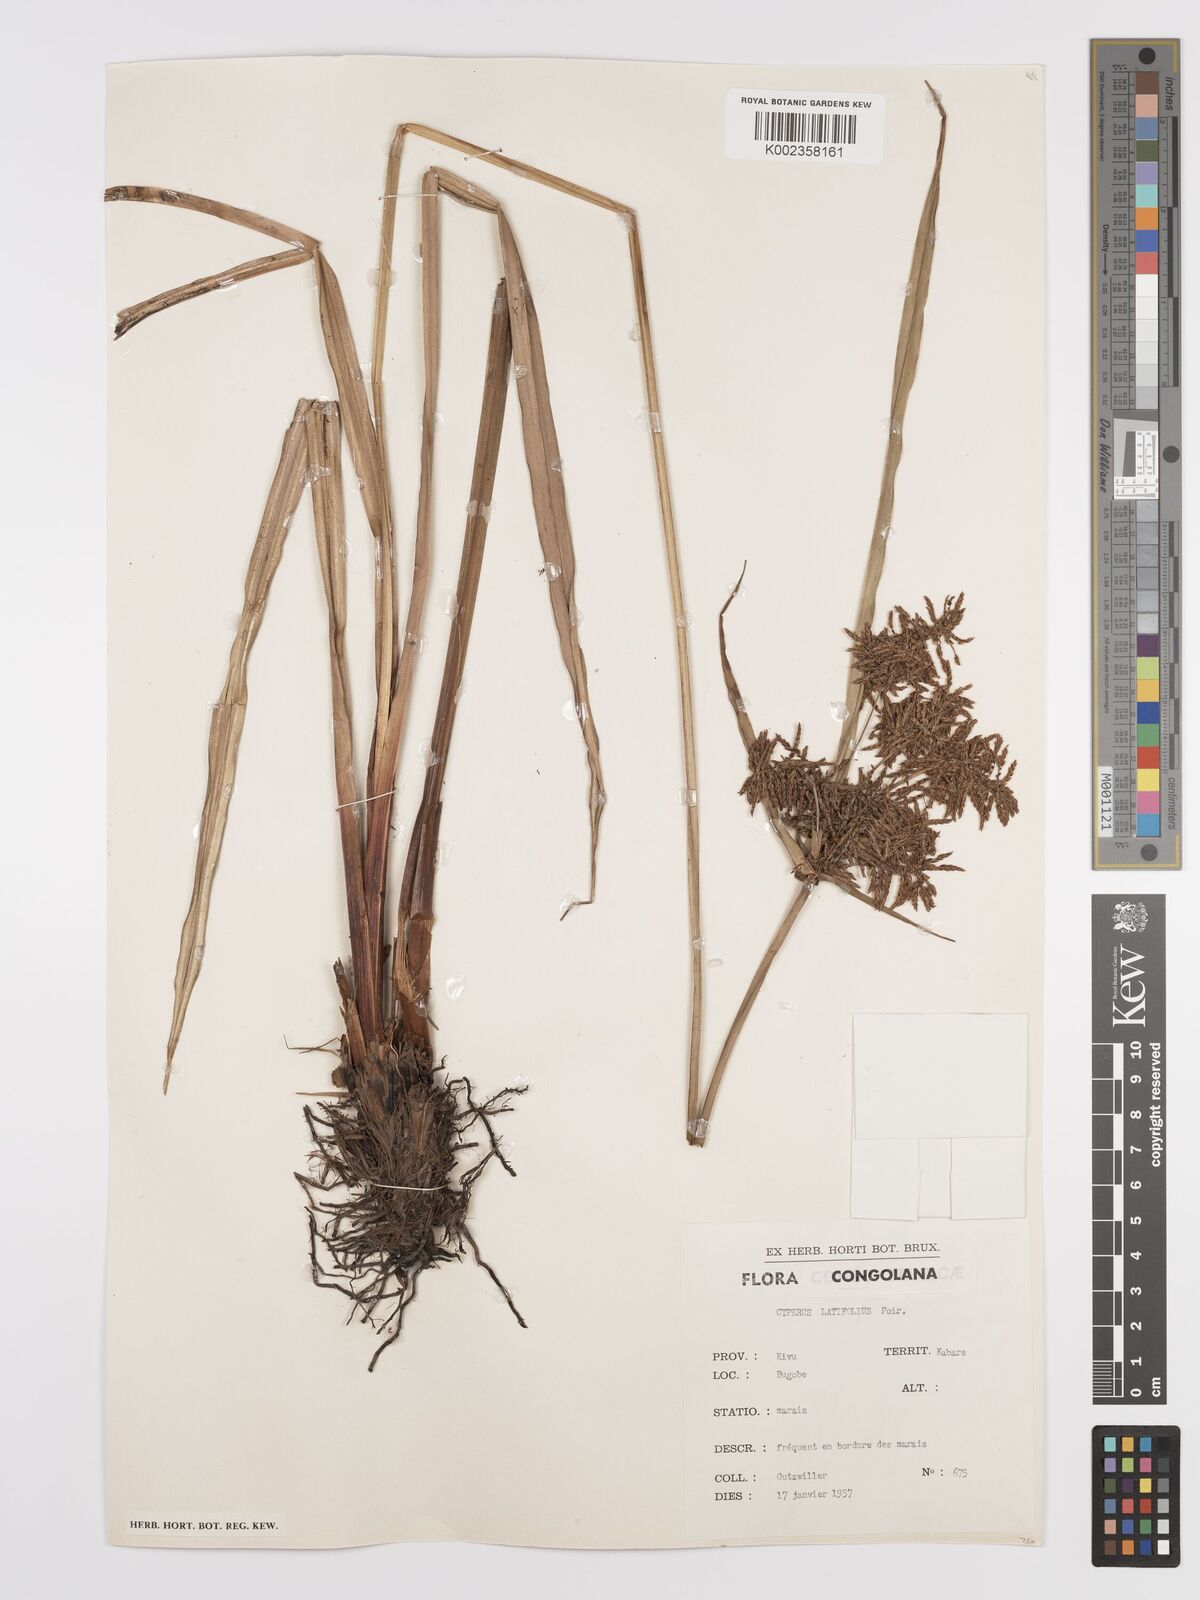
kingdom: Plantae
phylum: Tracheophyta
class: Liliopsida
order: Poales
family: Cyperaceae
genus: Cyperus
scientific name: Cyperus latifolius
